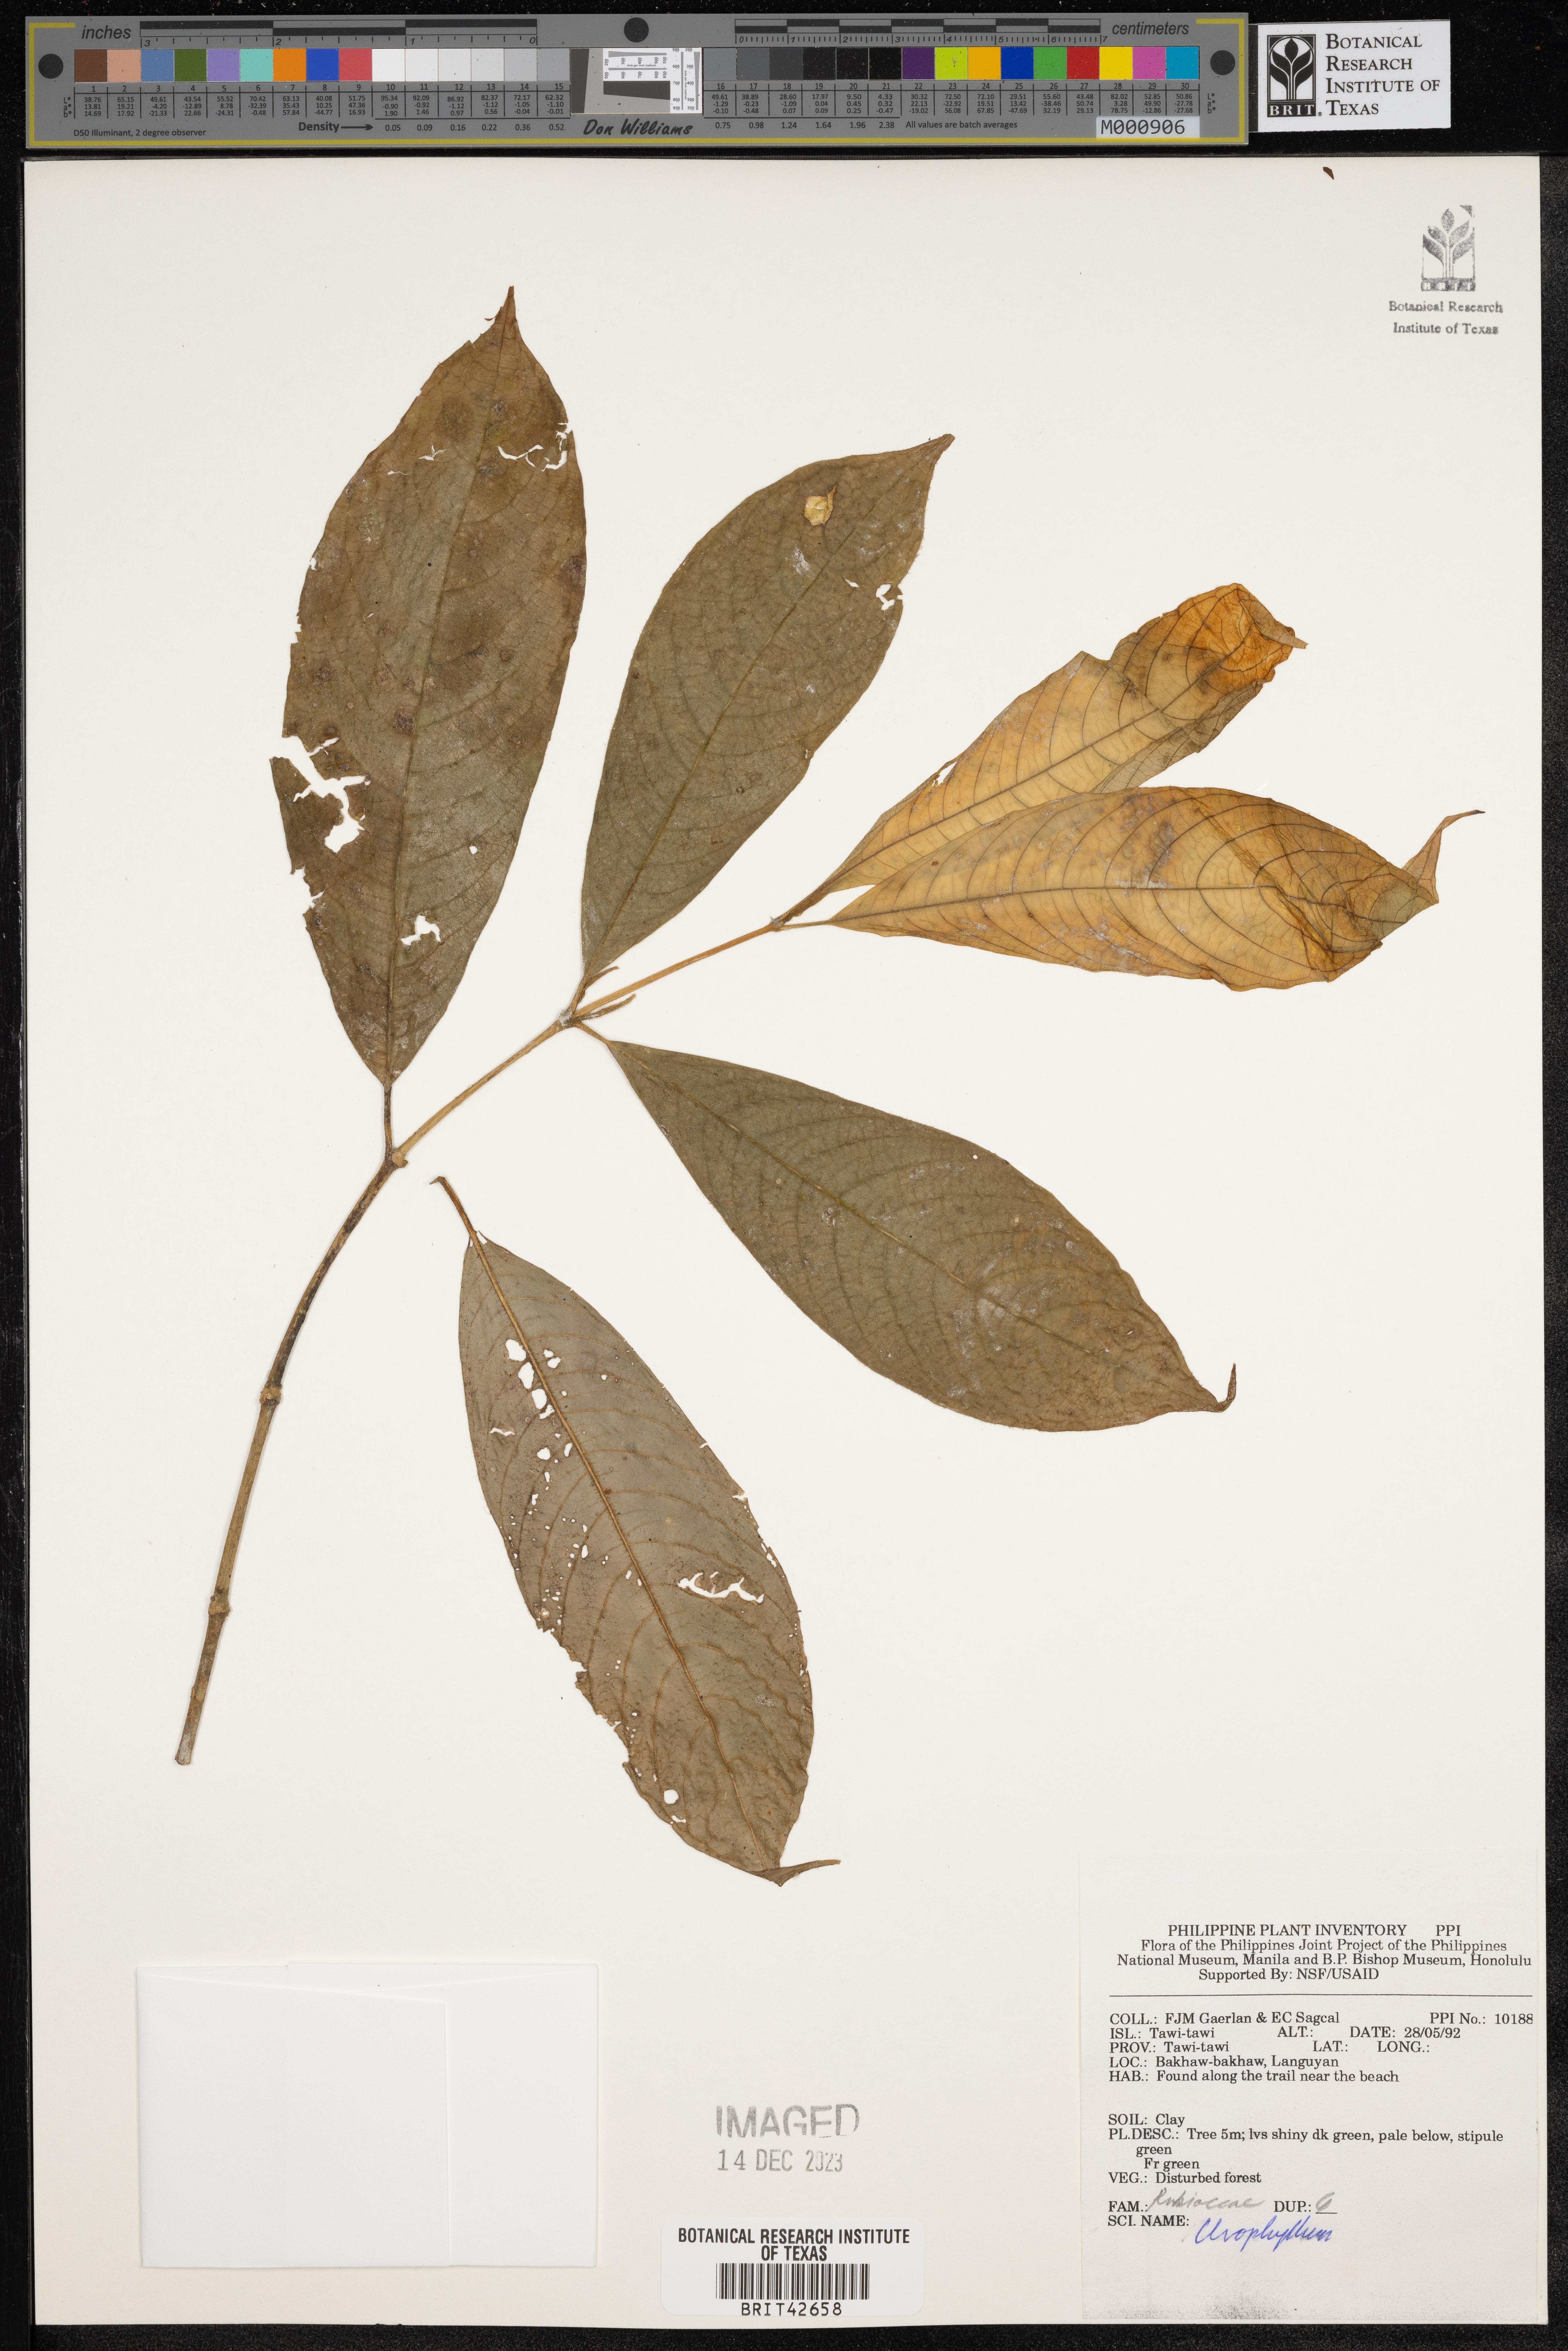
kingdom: Plantae
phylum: Tracheophyta
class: Magnoliopsida
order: Gentianales
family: Rubiaceae
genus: Urophyllum
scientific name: Urophyllum
